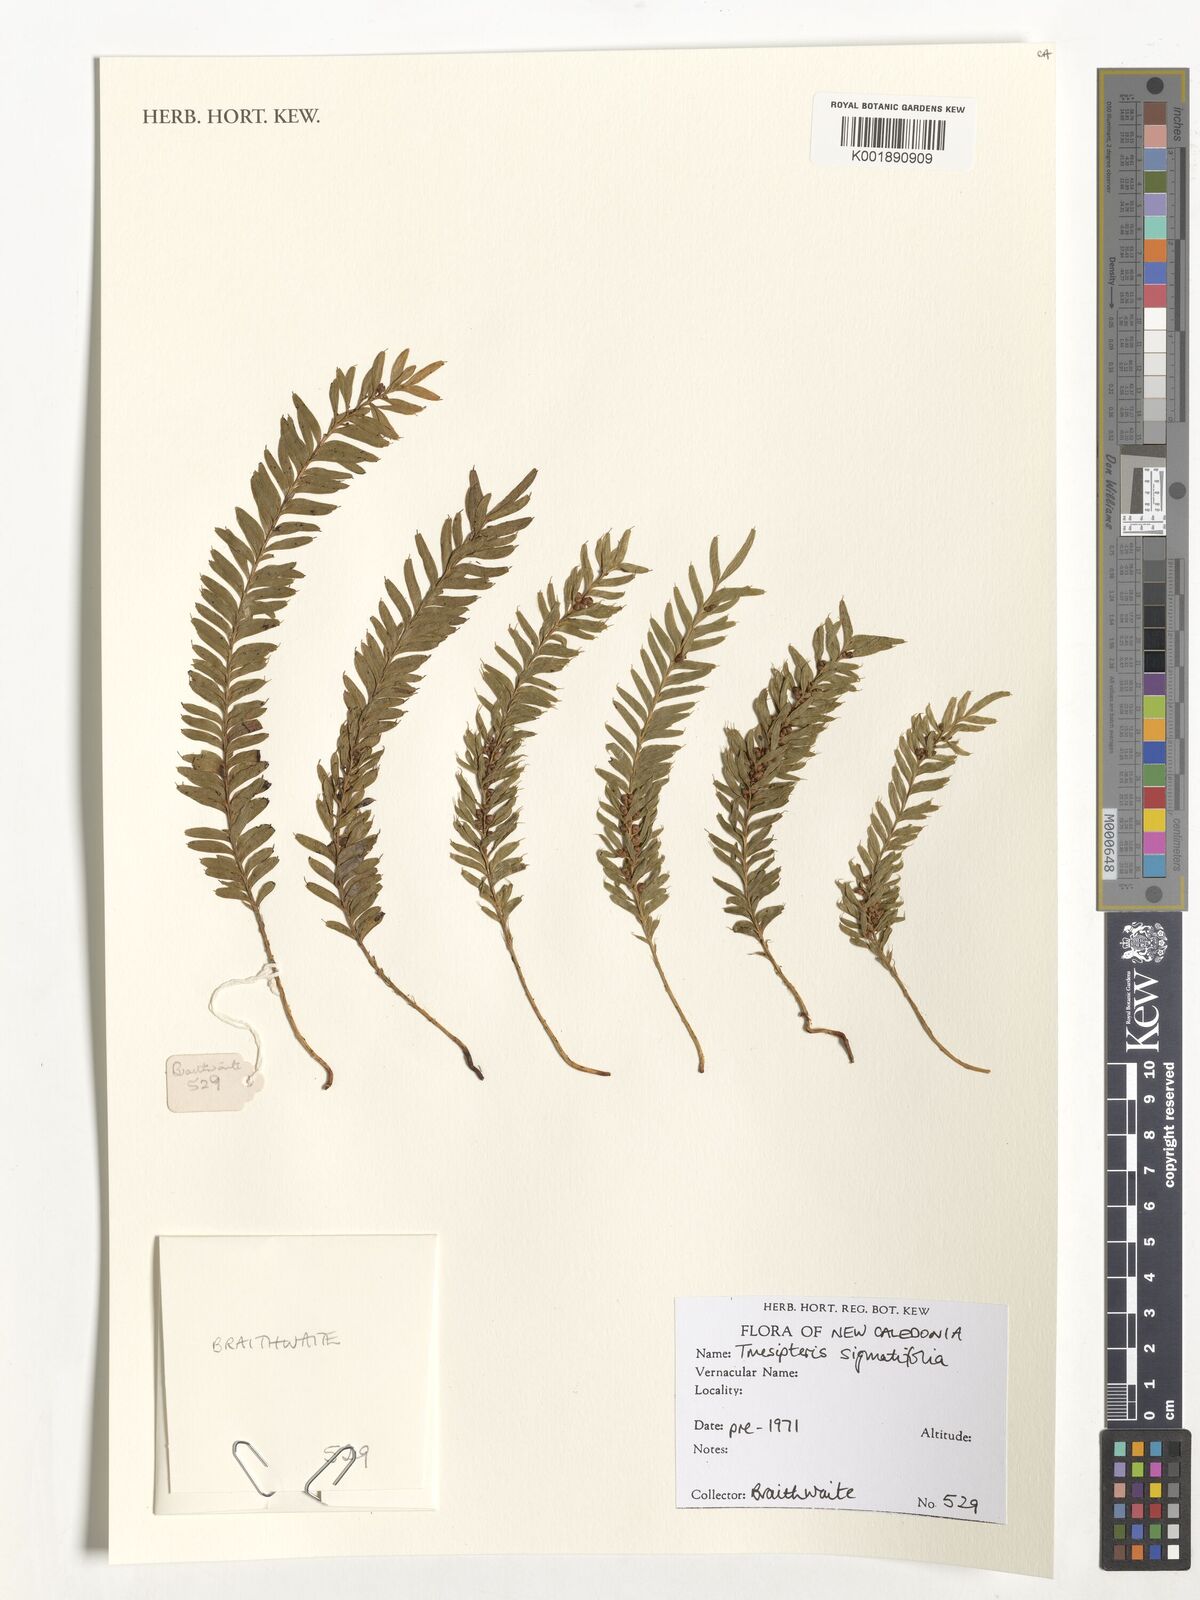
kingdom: Plantae
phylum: Tracheophyta
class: Polypodiopsida
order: Psilotales
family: Psilotaceae
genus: Tmesipteris
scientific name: Tmesipteris sigmatifolia
